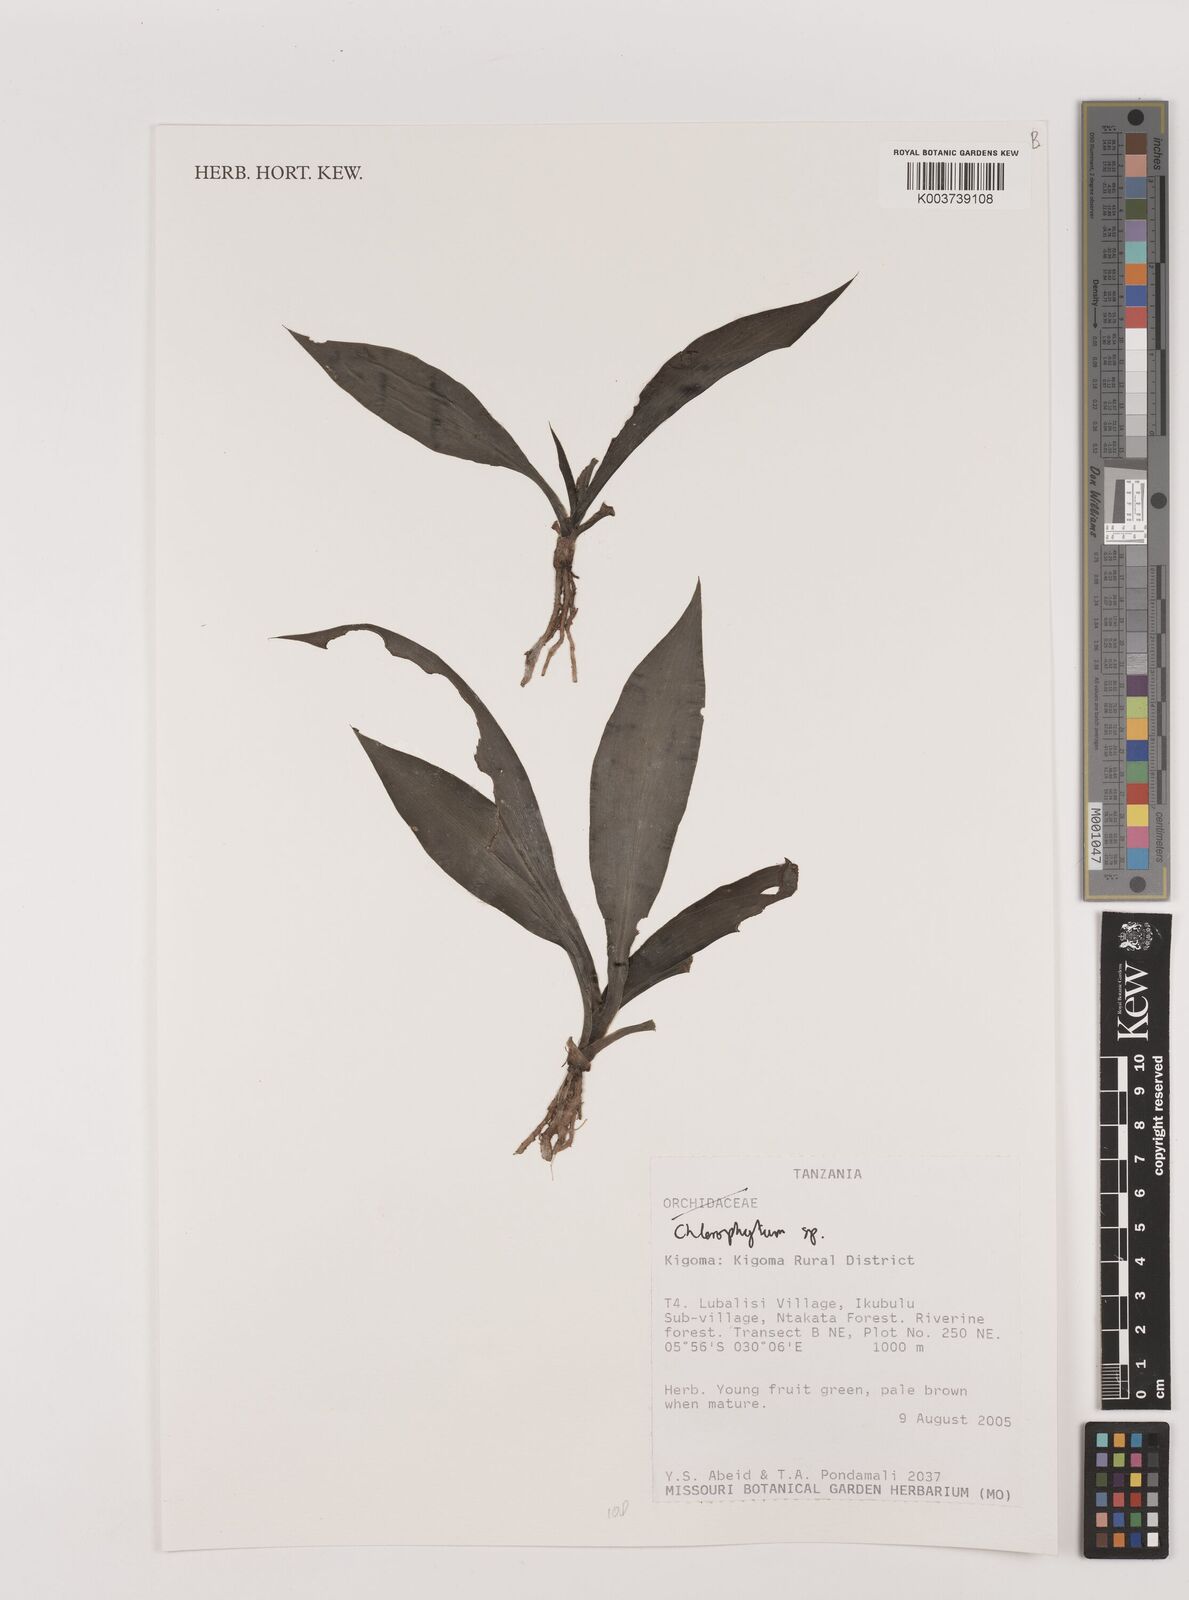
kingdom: Plantae
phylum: Tracheophyta
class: Liliopsida
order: Asparagales
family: Asparagaceae
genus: Chlorophytum
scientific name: Chlorophytum
